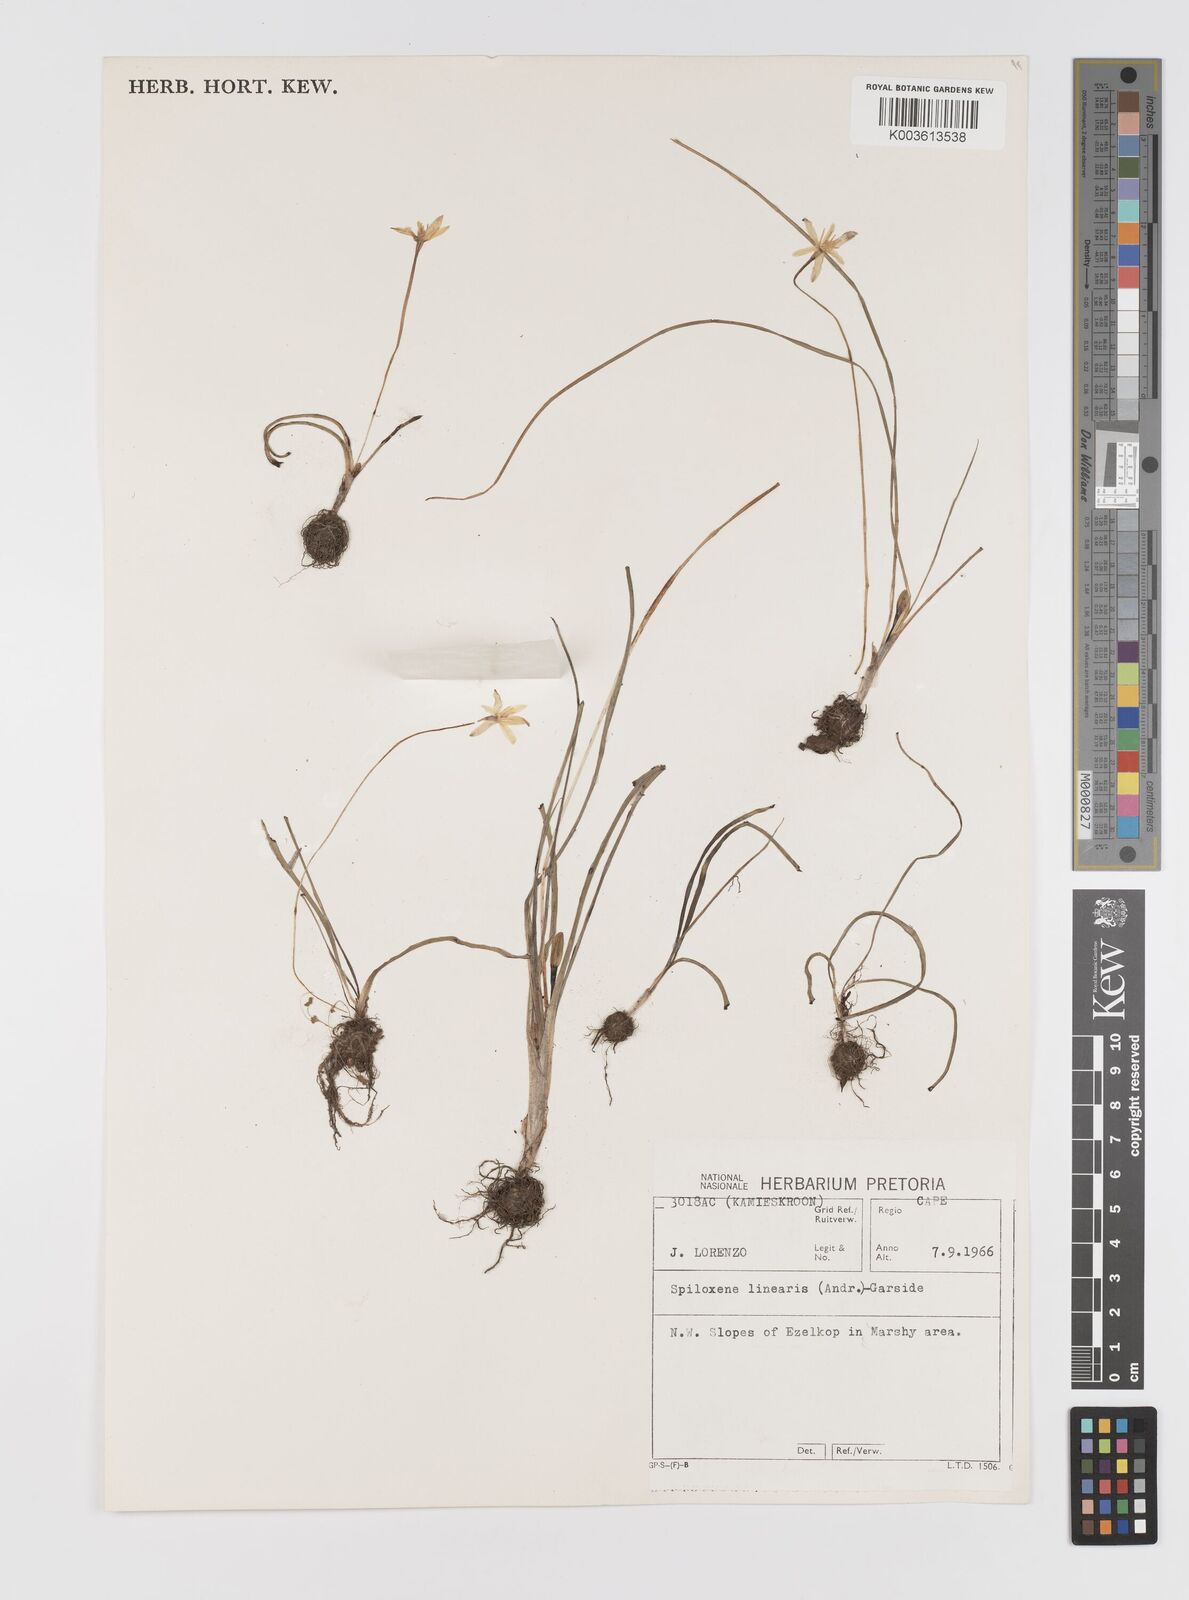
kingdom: Plantae
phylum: Tracheophyta
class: Liliopsida
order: Asparagales
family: Hypoxidaceae
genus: Pauridia
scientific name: Pauridia linearis
